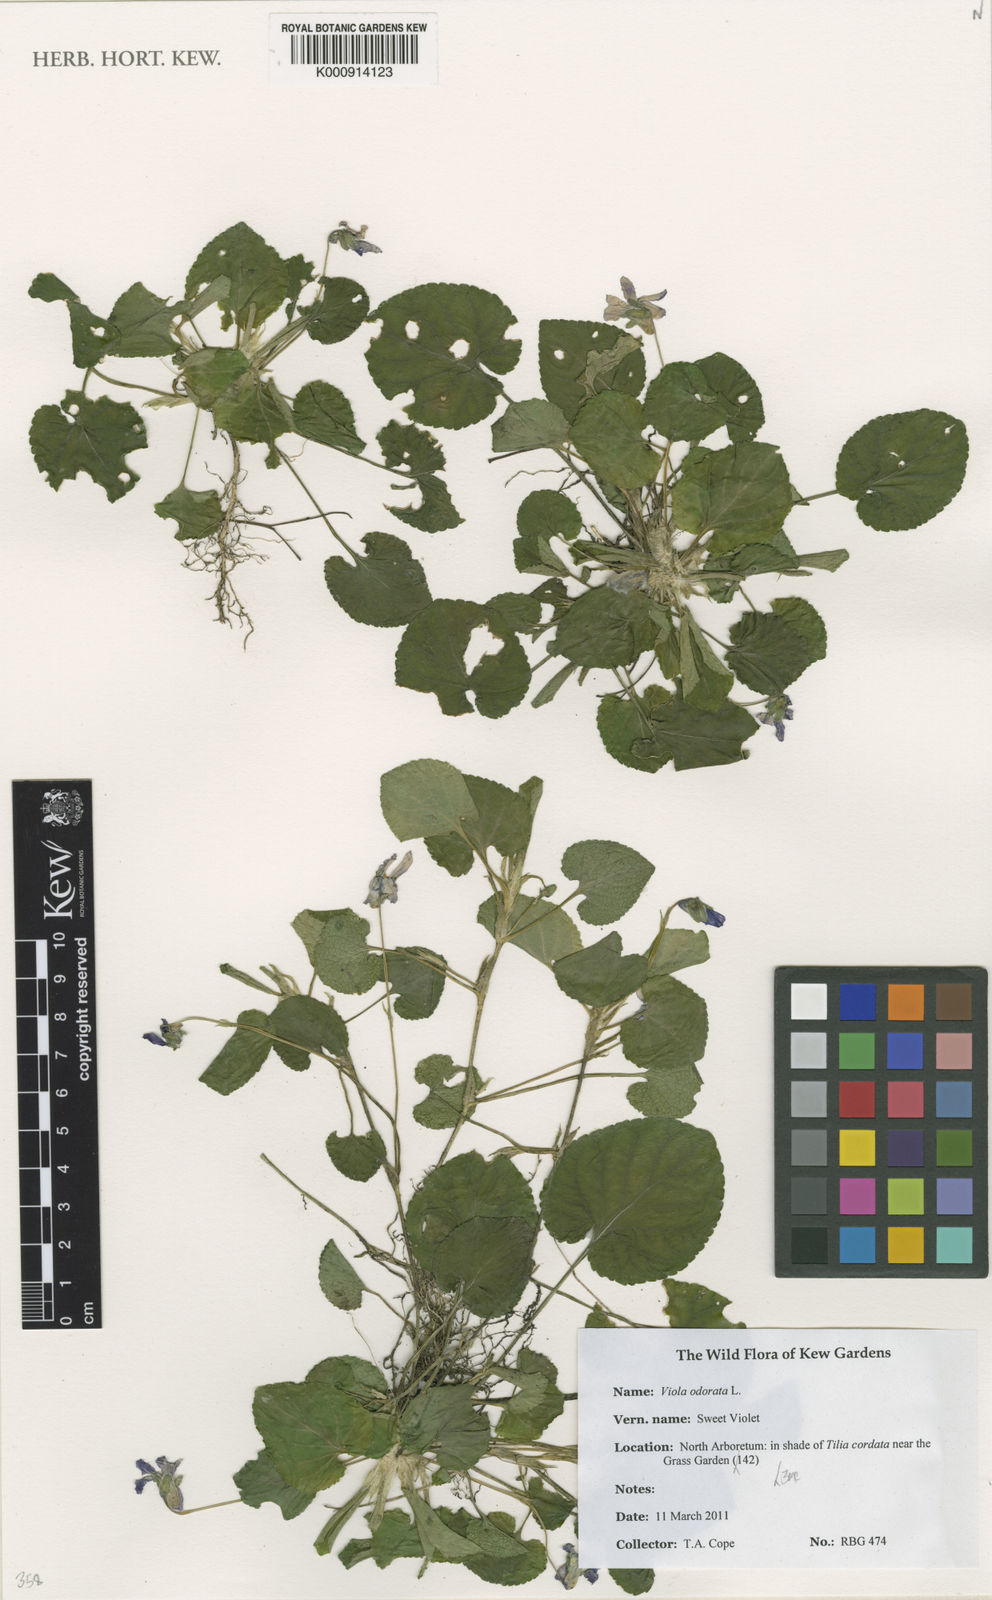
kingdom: Plantae
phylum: Tracheophyta
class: Magnoliopsida
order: Malpighiales
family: Violaceae
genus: Viola
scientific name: Viola odorata
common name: Sweet violet
